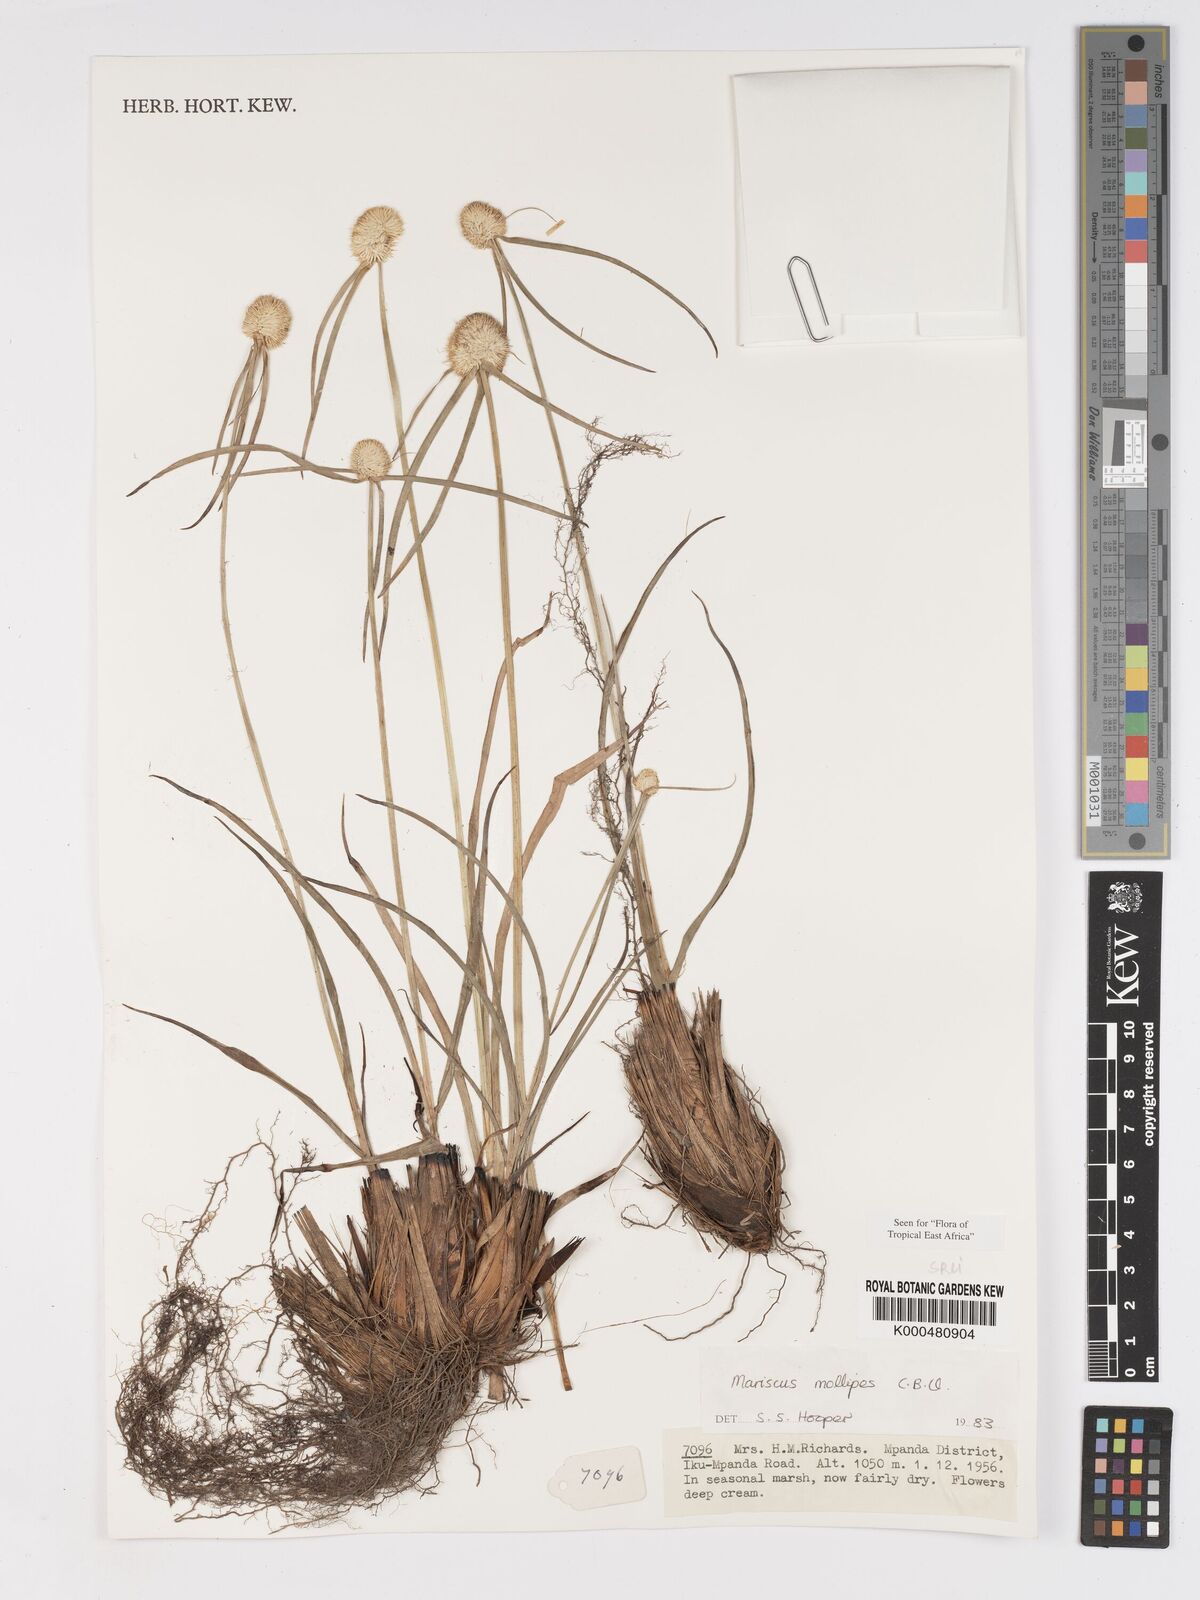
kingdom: Plantae
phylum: Tracheophyta
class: Liliopsida
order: Poales
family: Cyperaceae
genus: Cyperus
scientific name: Cyperus mollipes
